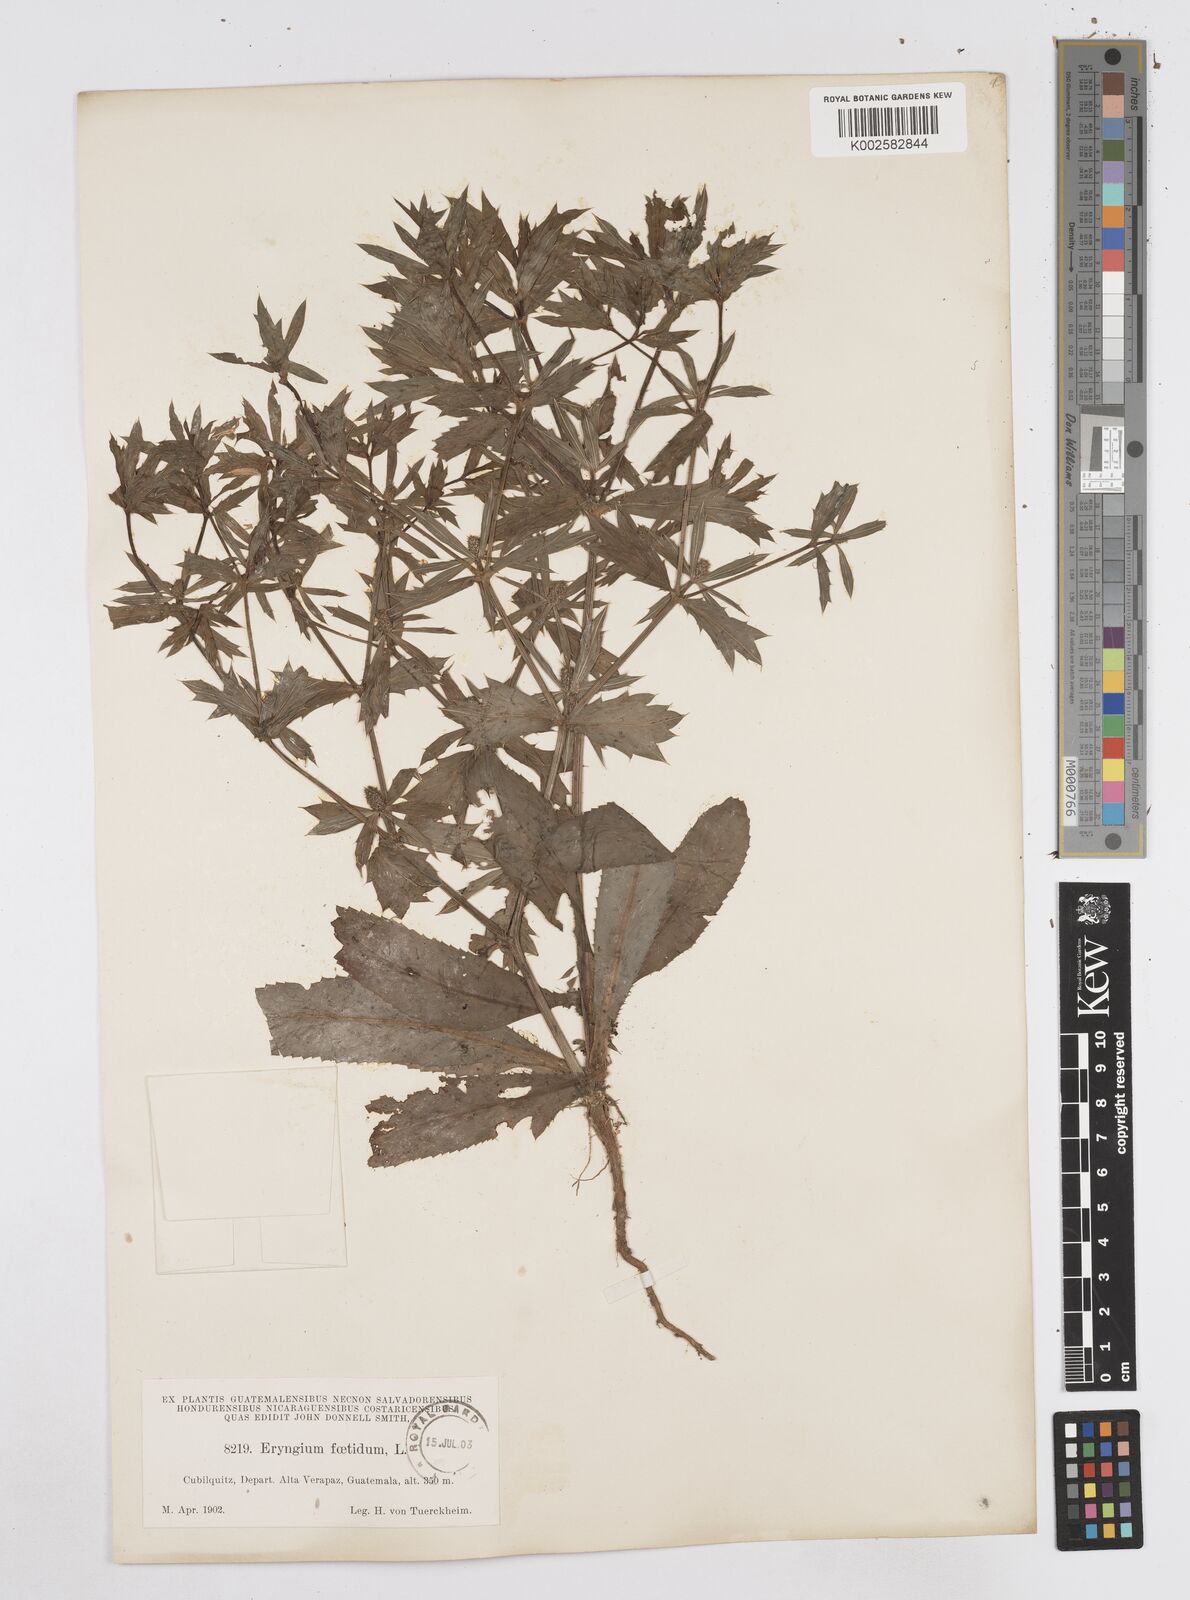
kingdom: Plantae
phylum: Tracheophyta
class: Magnoliopsida
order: Apiales
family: Apiaceae
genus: Eryngium
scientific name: Eryngium foetidum
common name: Fitweed
